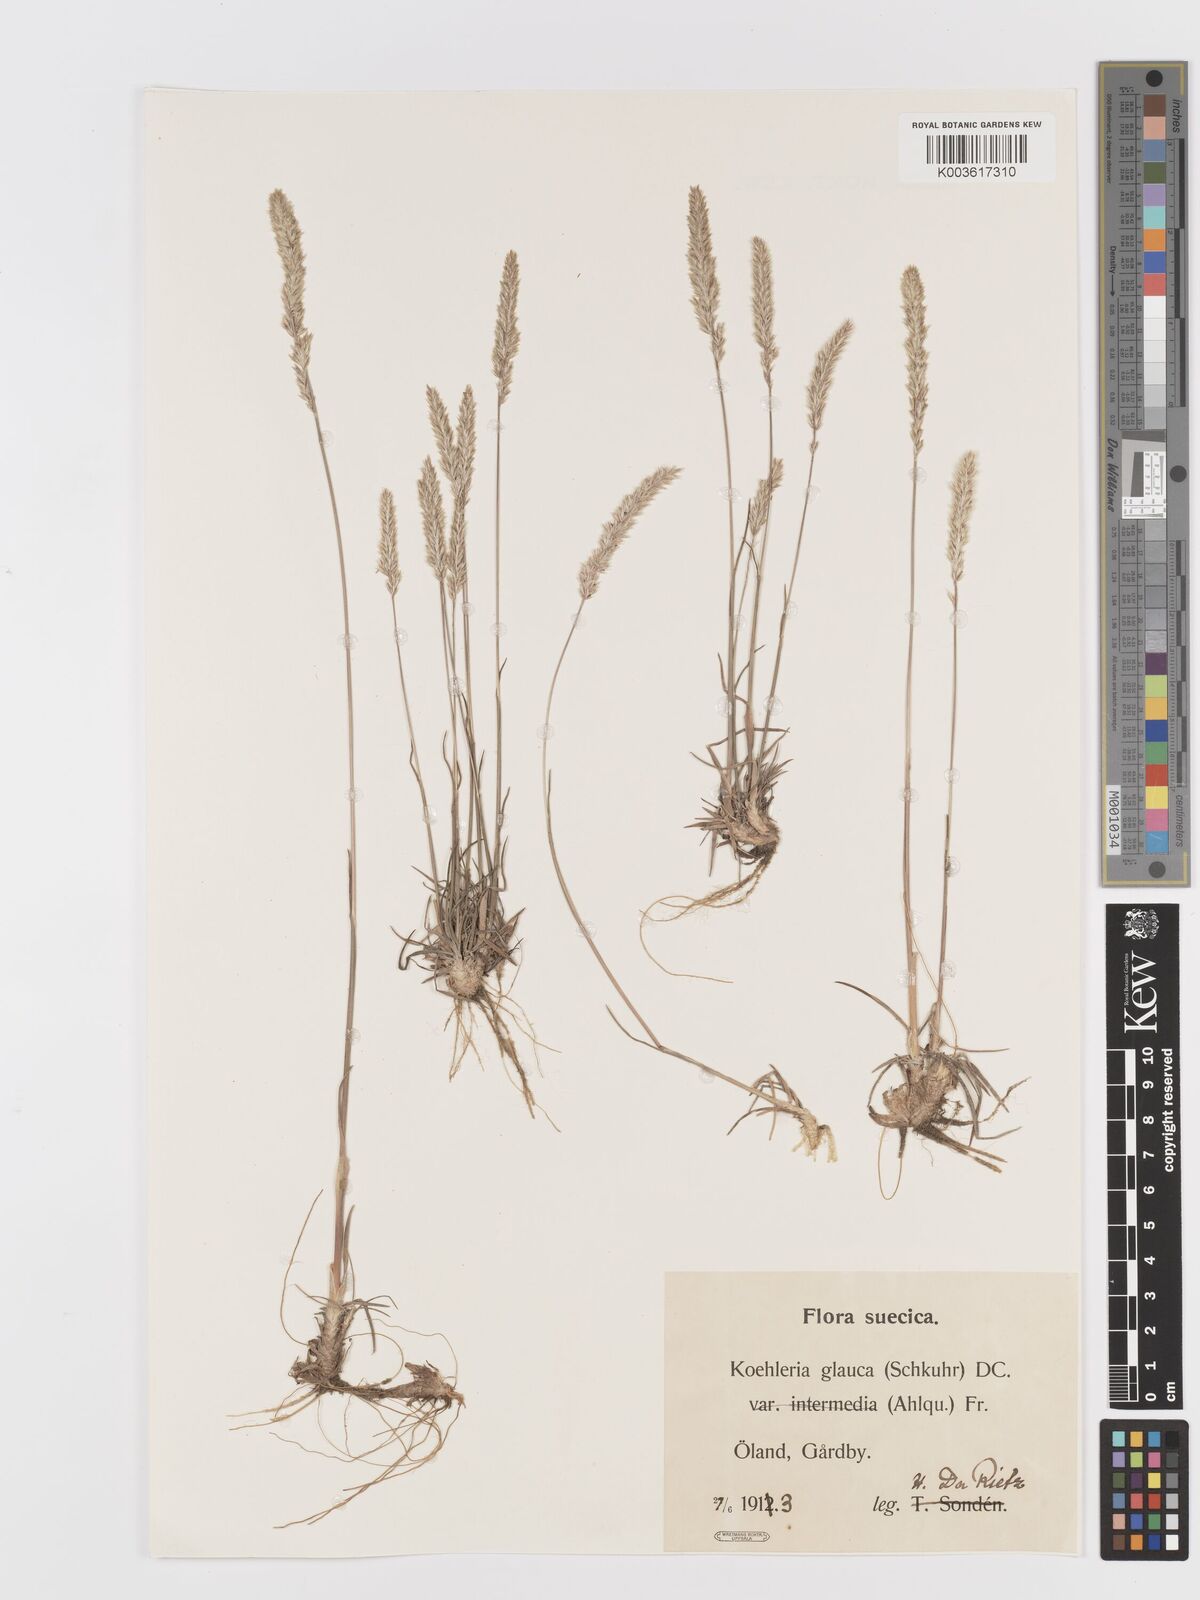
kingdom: Plantae
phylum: Tracheophyta
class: Liliopsida
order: Poales
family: Poaceae
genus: Koeleria
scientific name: Koeleria glauca
